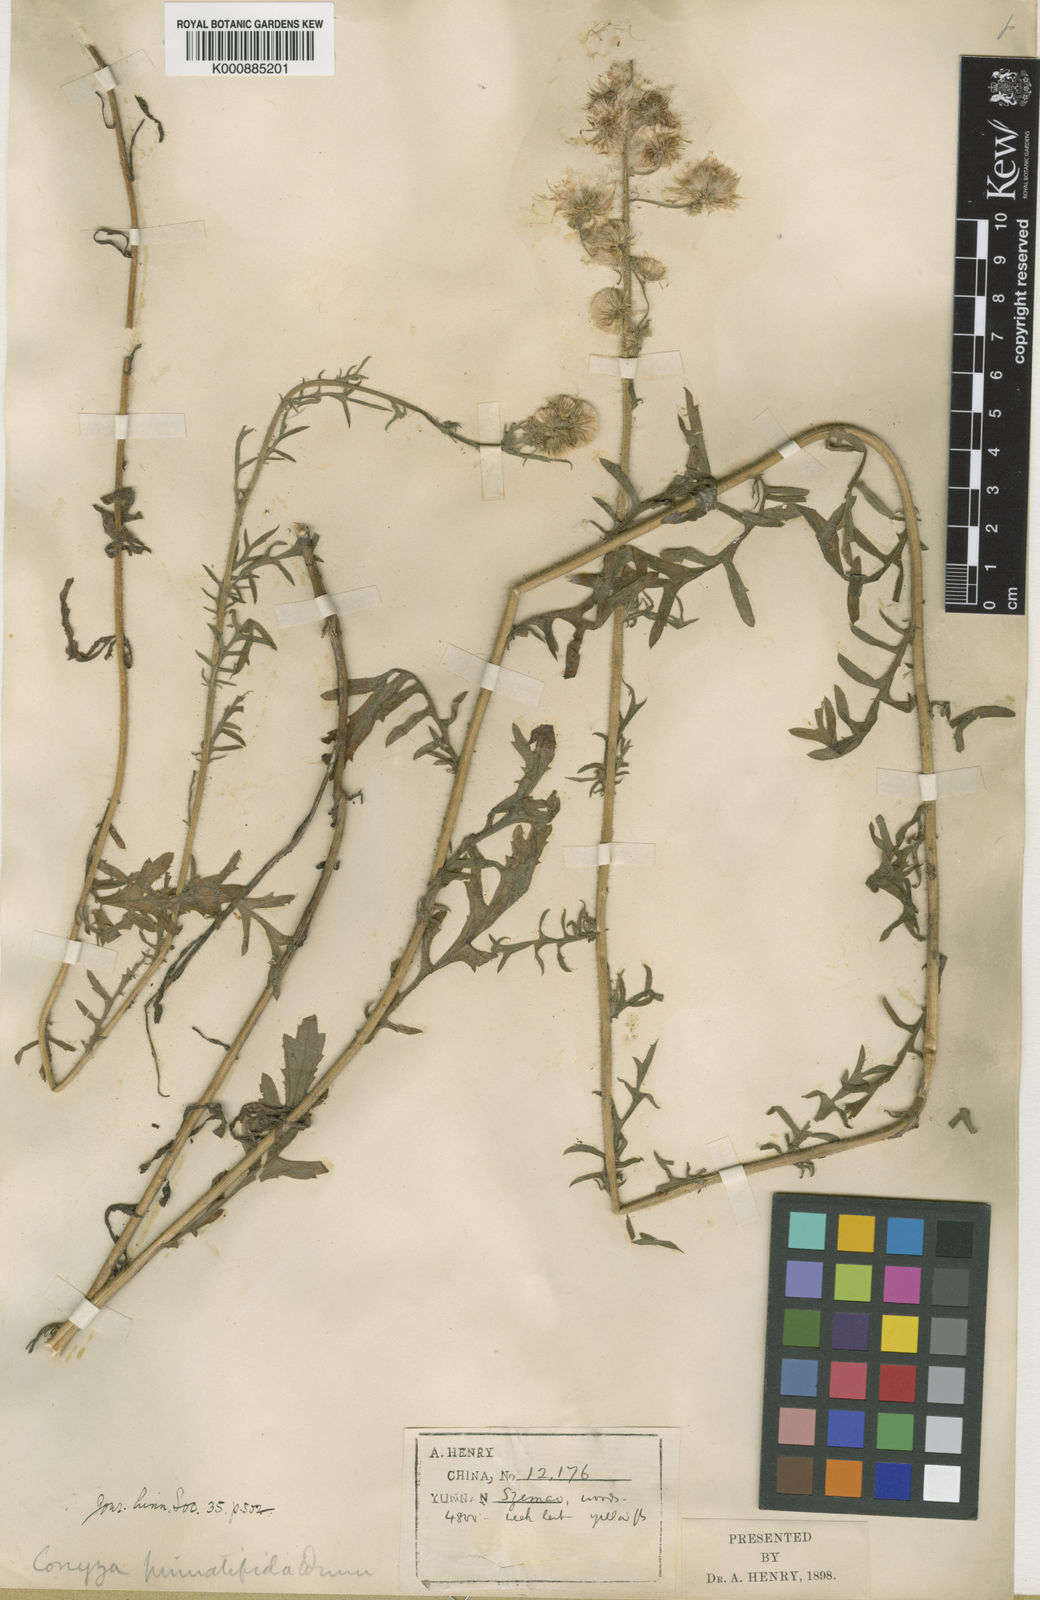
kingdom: Plantae
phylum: Tracheophyta
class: Magnoliopsida
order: Asterales
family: Asteraceae
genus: Nidorella
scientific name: Nidorella pinnatifida
